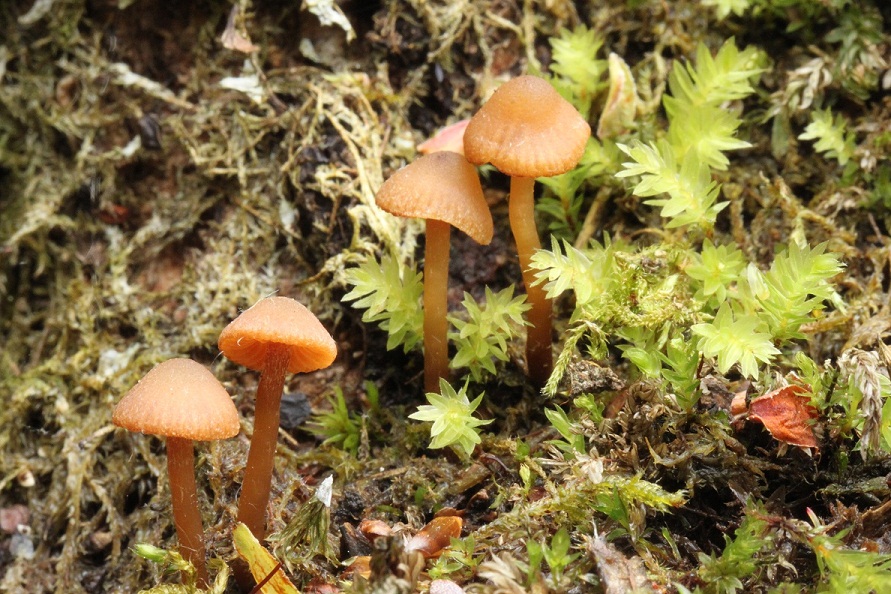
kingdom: Fungi
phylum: Basidiomycota
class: Agaricomycetes
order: Agaricales
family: Hymenogastraceae
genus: Naucoria
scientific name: Naucoria scolecina
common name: mørk elle-knaphat
